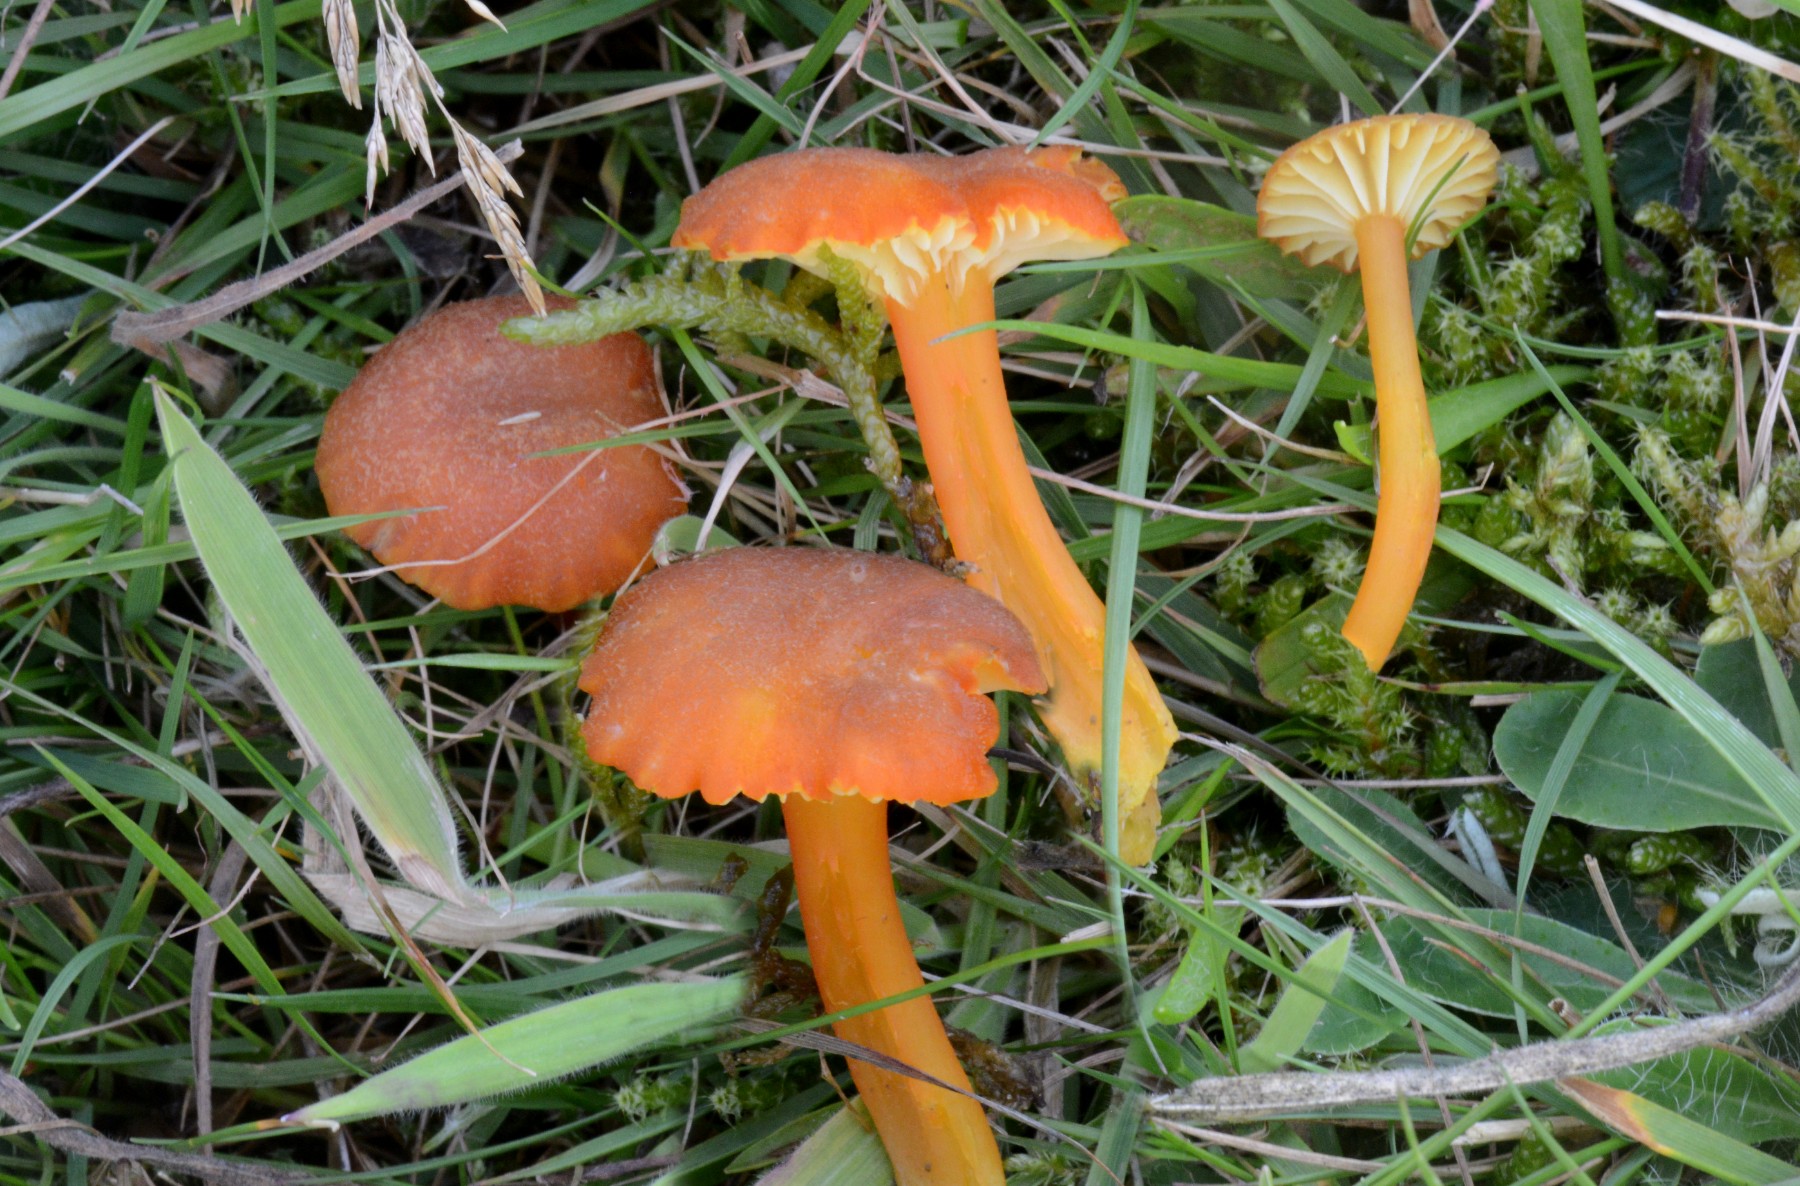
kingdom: Fungi
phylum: Basidiomycota
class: Agaricomycetes
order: Agaricales
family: Hygrophoraceae
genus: Hygrocybe
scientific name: Hygrocybe miniata
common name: mønje-vokshat
